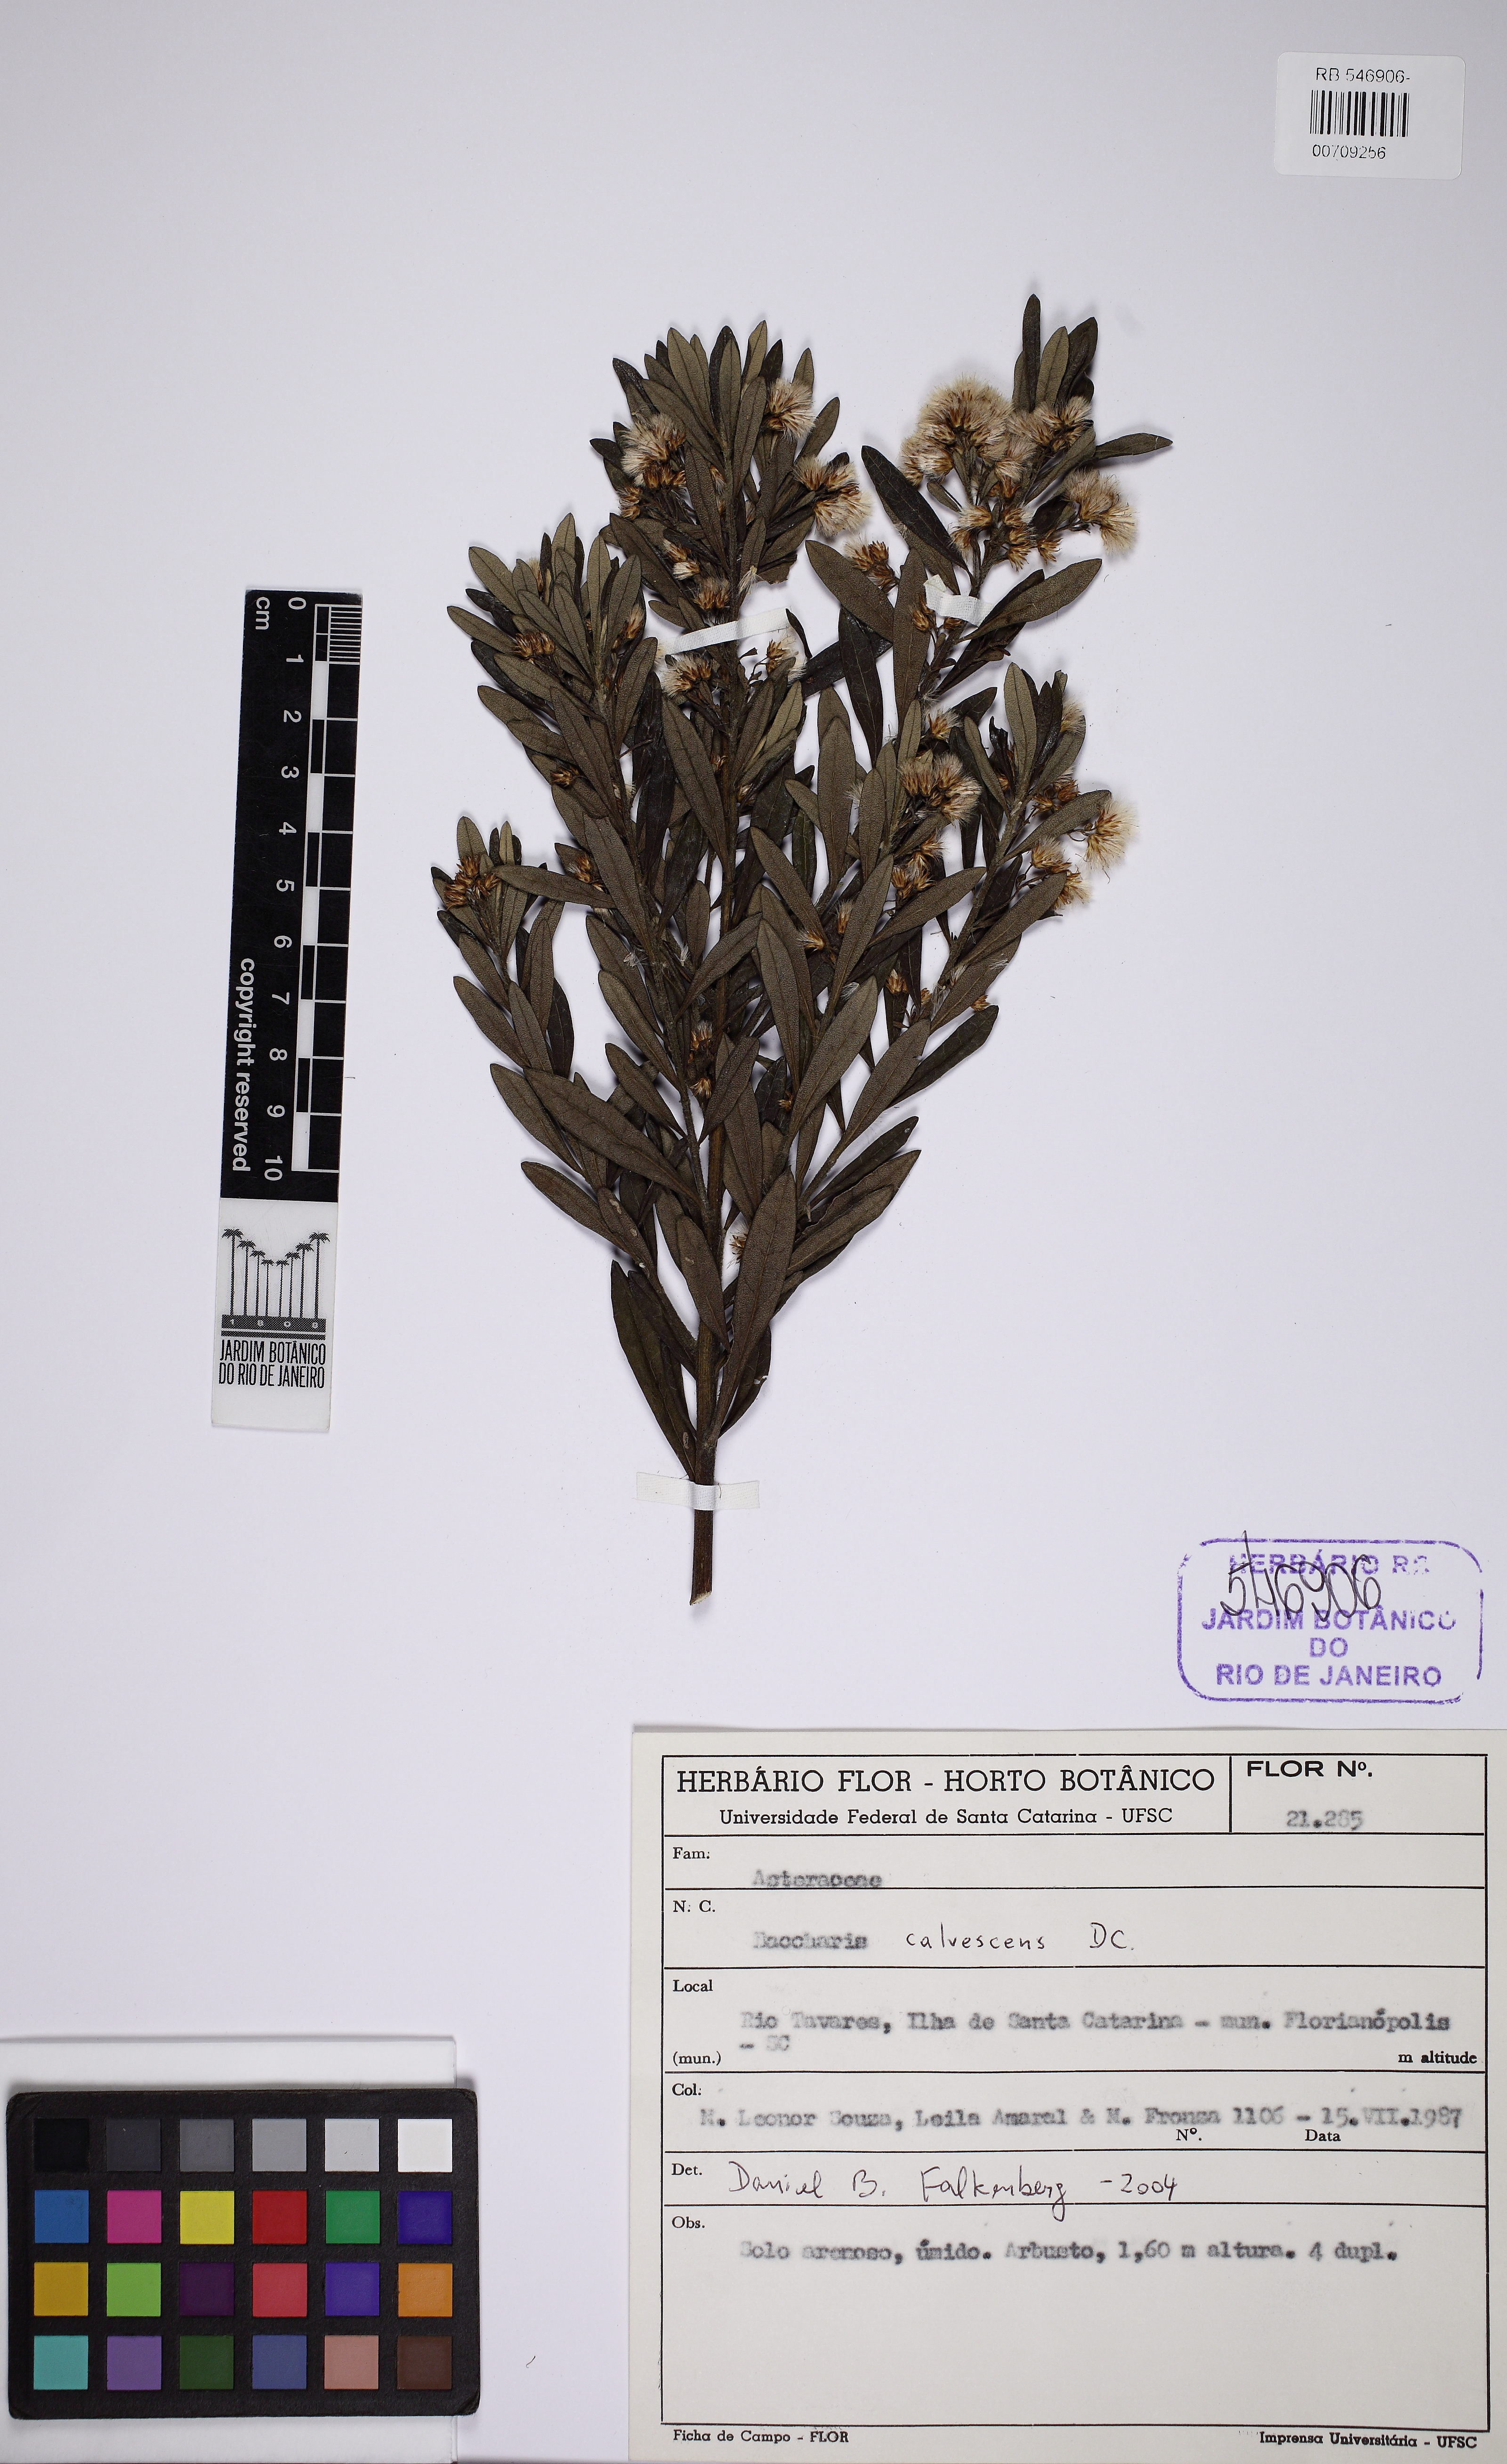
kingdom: Plantae
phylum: Tracheophyta
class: Magnoliopsida
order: Asterales
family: Asteraceae
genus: Baccharis
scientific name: Baccharis calvescens
